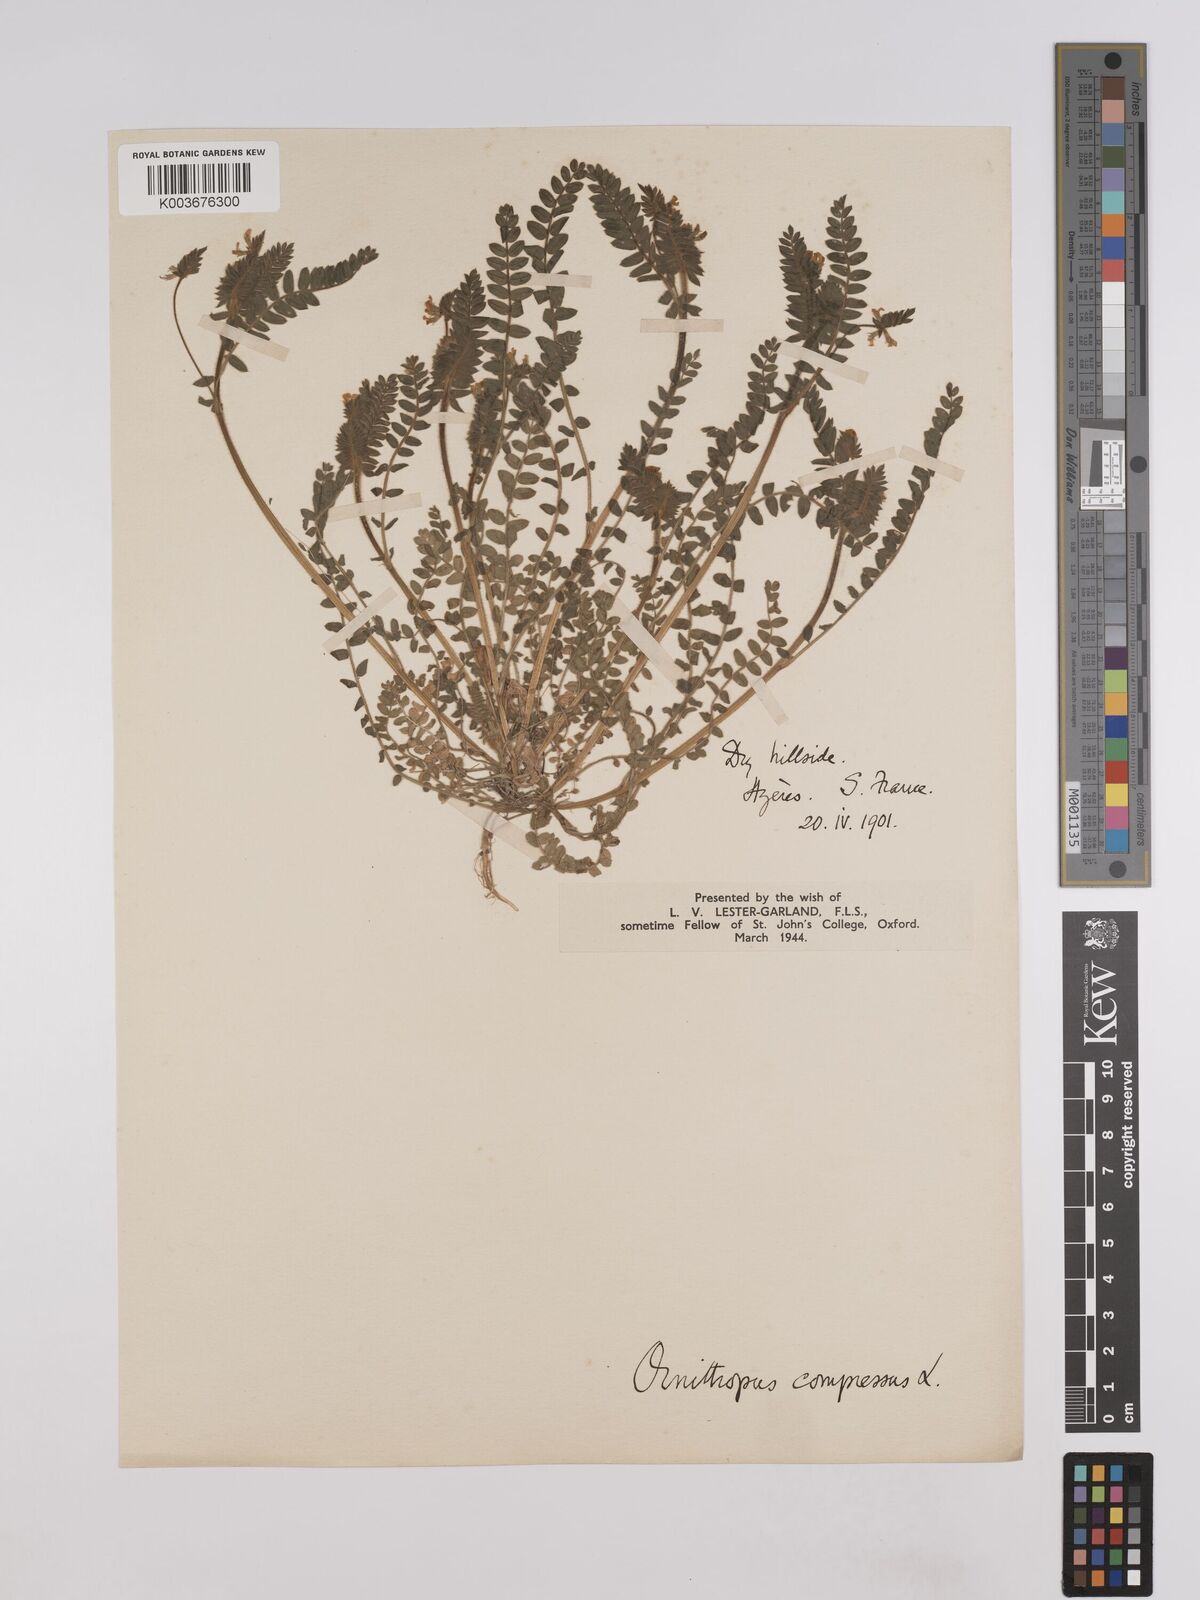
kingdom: Plantae
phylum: Tracheophyta
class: Magnoliopsida
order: Fabales
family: Fabaceae
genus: Ornithopus
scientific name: Ornithopus compressus
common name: Yellow serradella
